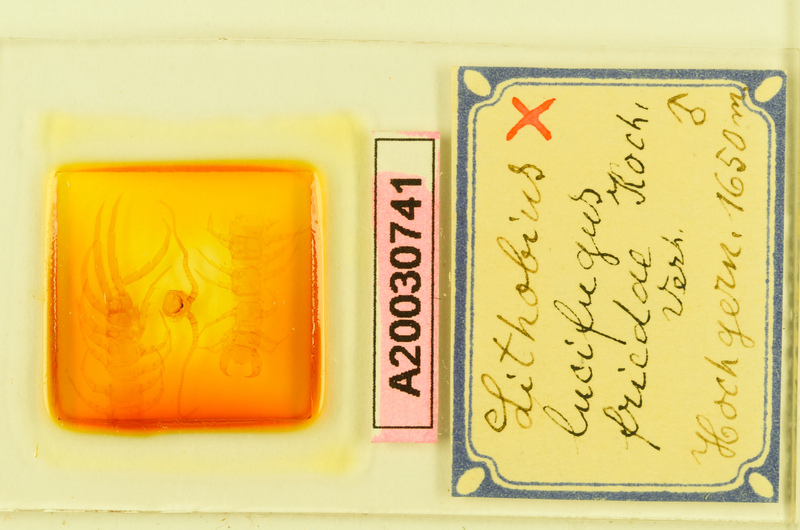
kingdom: Animalia
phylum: Arthropoda
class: Chilopoda
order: Lithobiomorpha
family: Lithobiidae
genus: Lithobius
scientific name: Lithobius lucifugus
